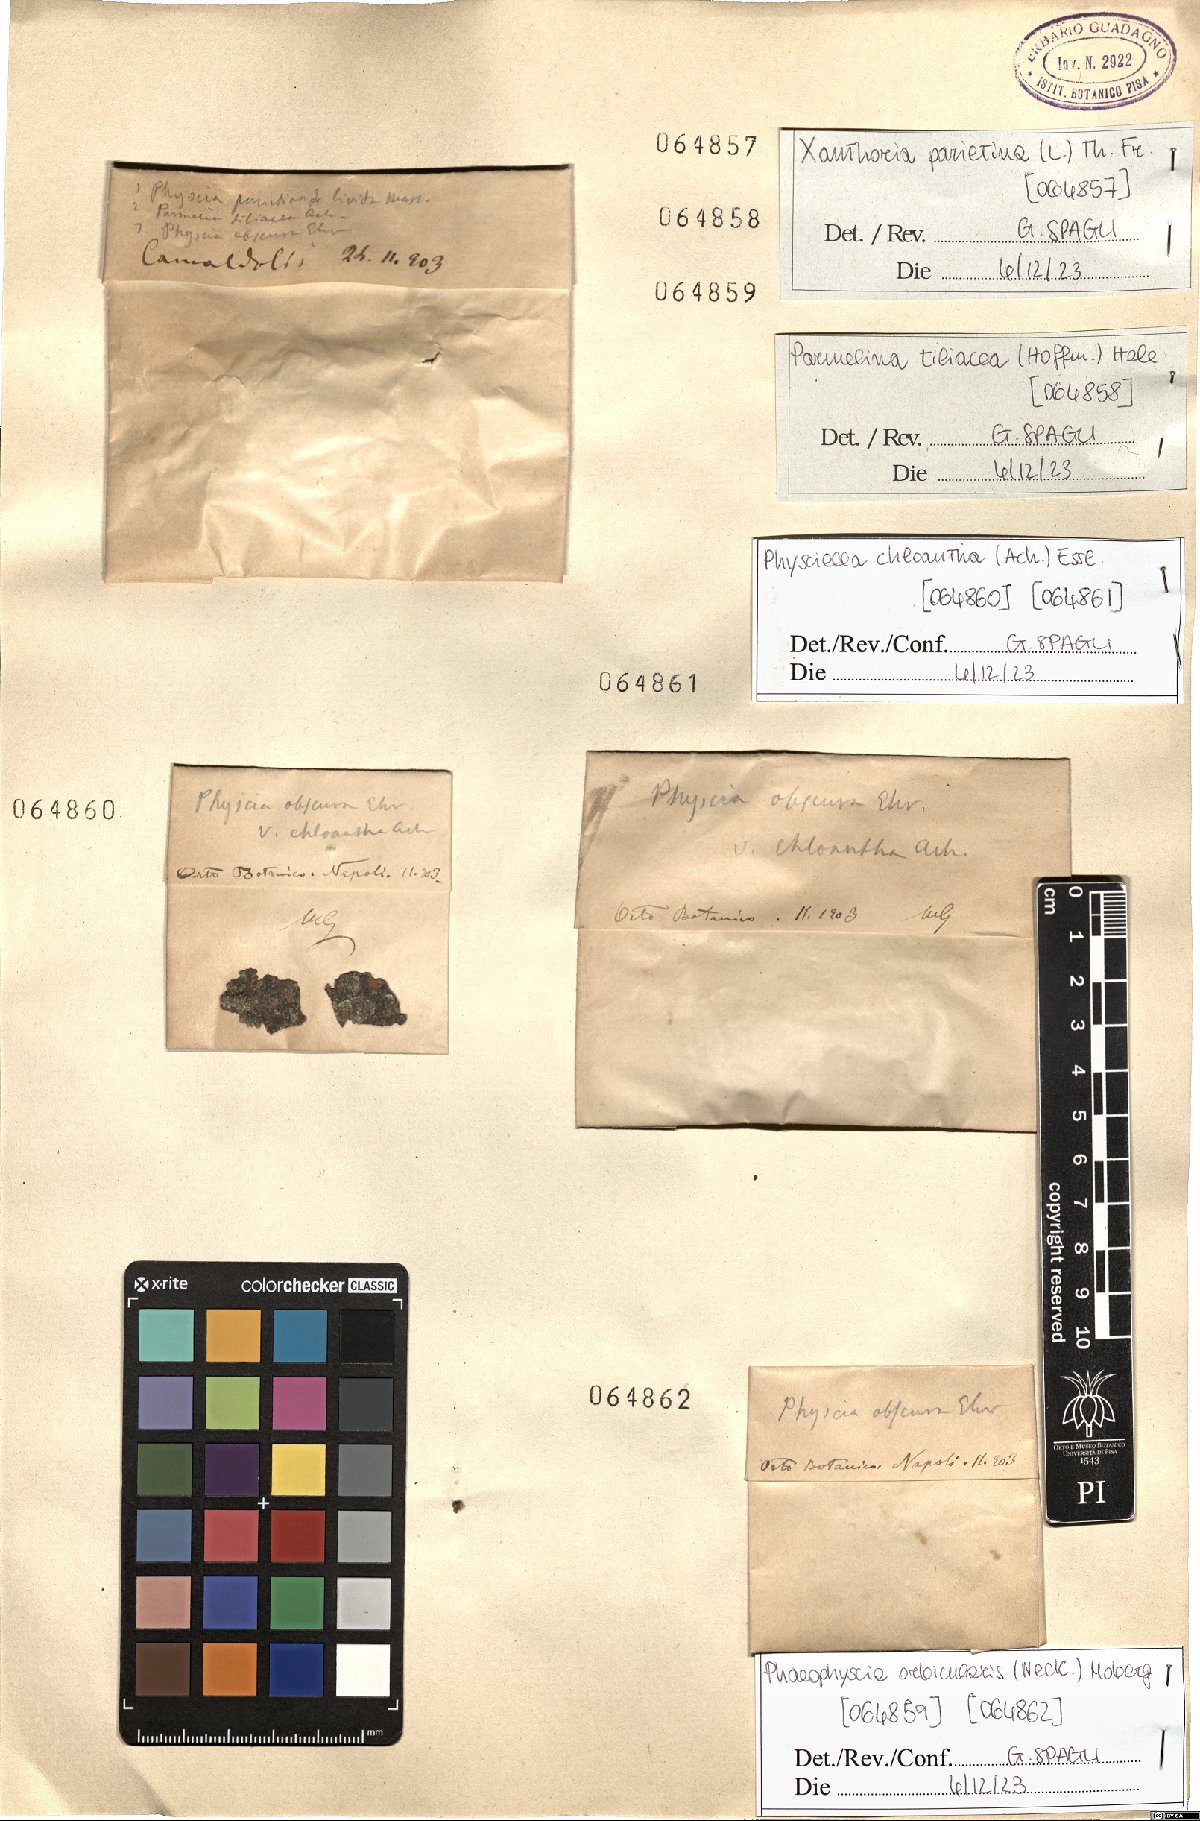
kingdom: Fungi
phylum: Ascomycota
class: Lecanoromycetes
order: Caliciales
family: Physciaceae
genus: Physciella
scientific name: Physciella chloantha
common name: Cryptic rosette lichen
